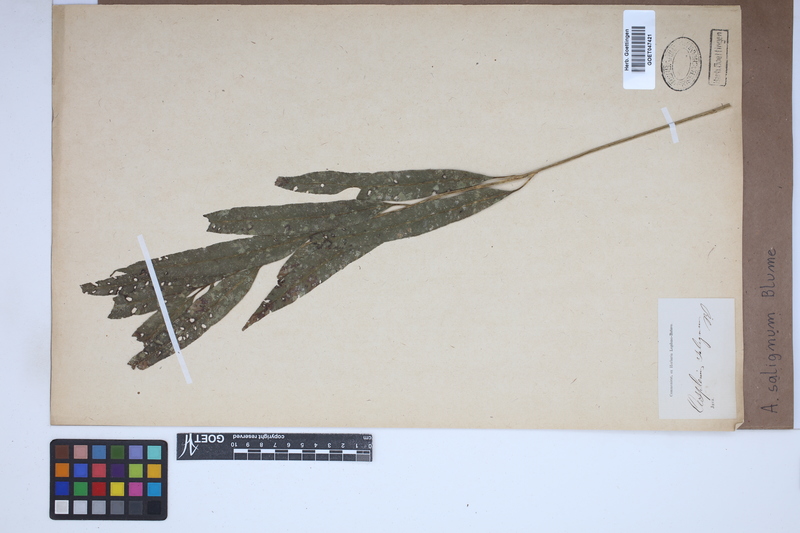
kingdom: Plantae
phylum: Tracheophyta
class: Polypodiopsida
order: Polypodiales
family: Aspleniaceae
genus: Asplenium
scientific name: Asplenium salignum
